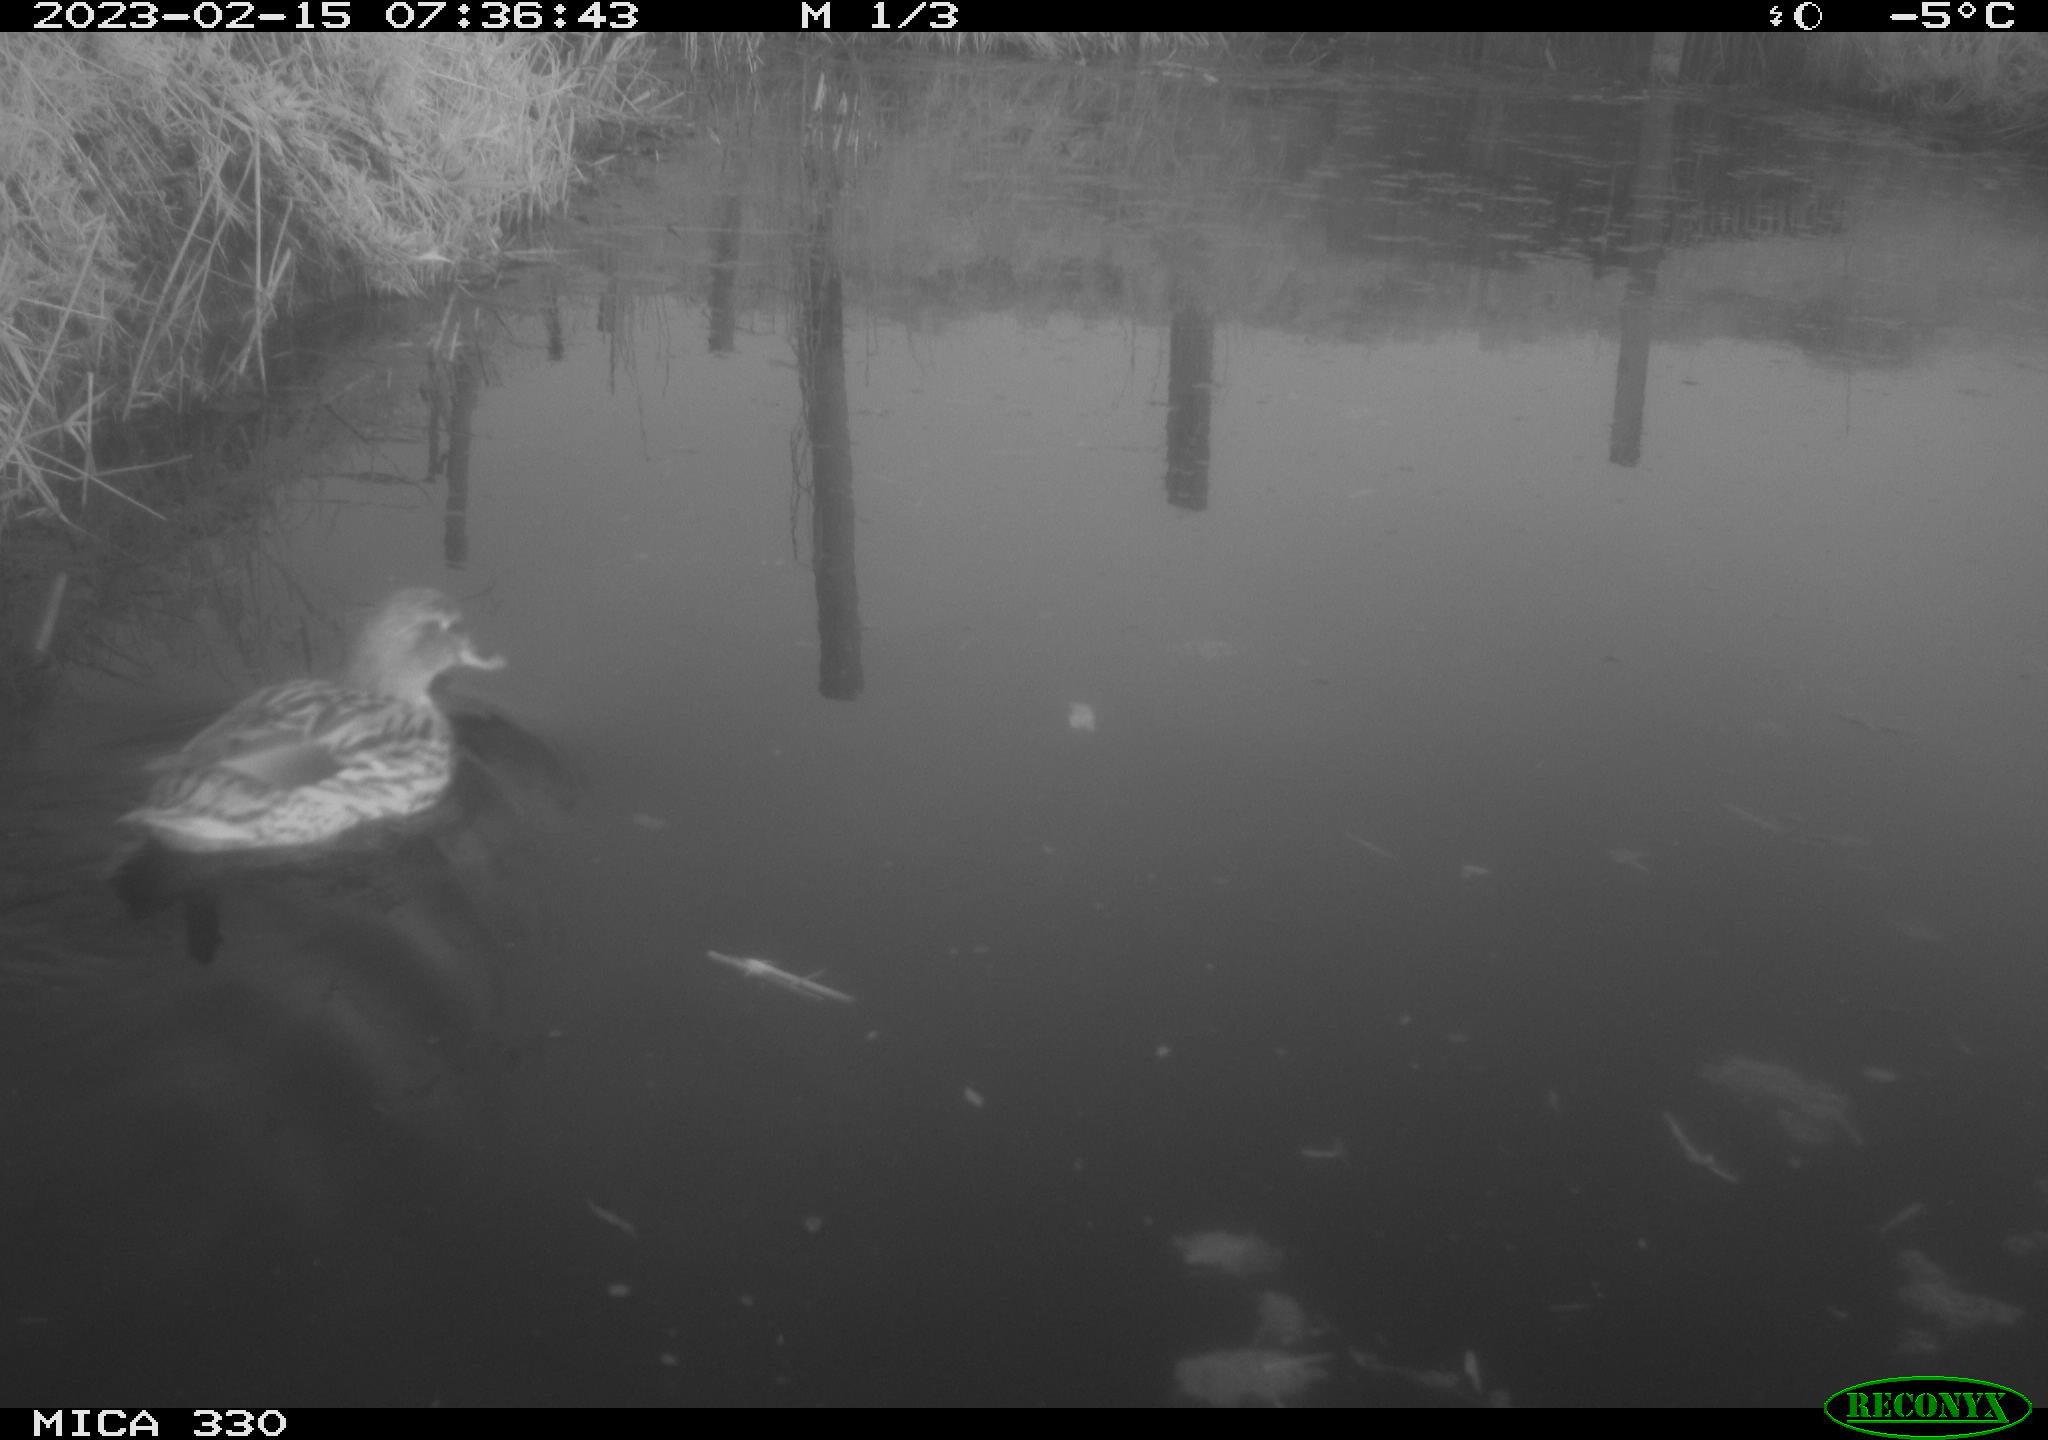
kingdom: Animalia
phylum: Chordata
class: Aves
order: Anseriformes
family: Anatidae
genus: Anas
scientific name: Anas
